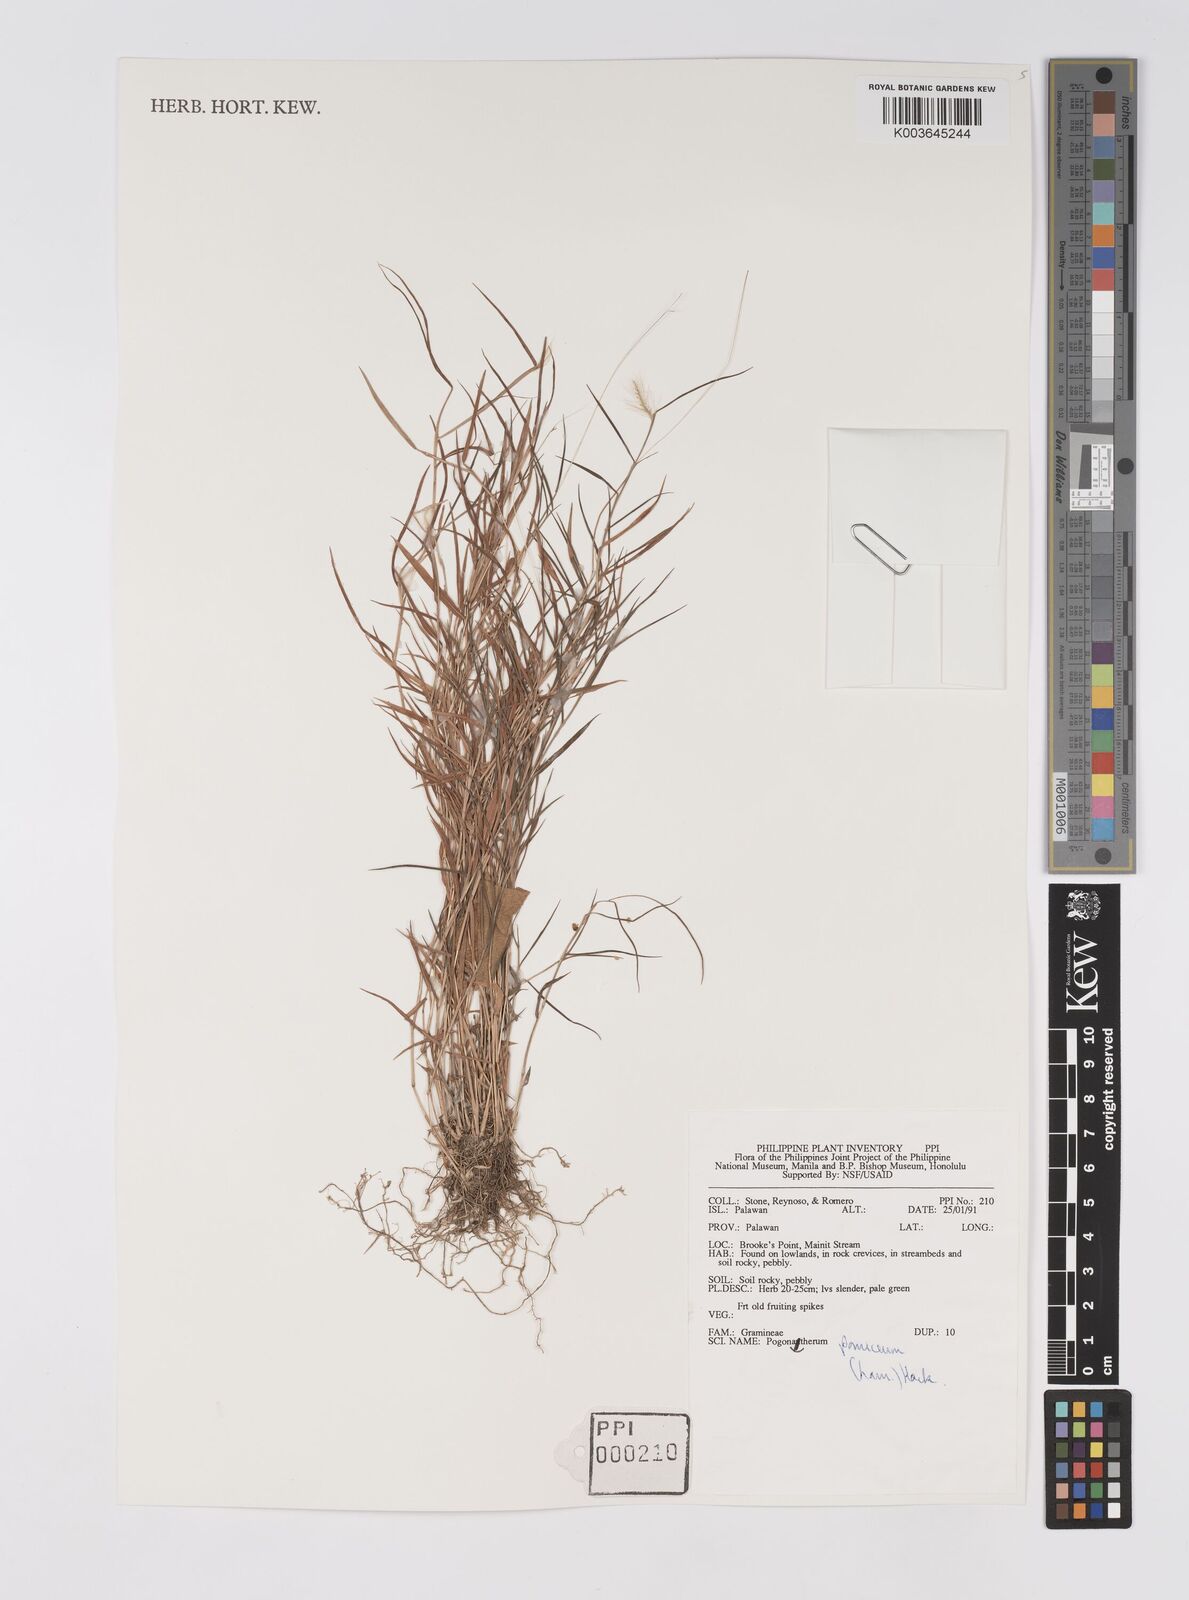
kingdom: Plantae
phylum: Tracheophyta
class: Liliopsida
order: Poales
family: Poaceae
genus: Pogonatherum
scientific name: Pogonatherum paniceum
